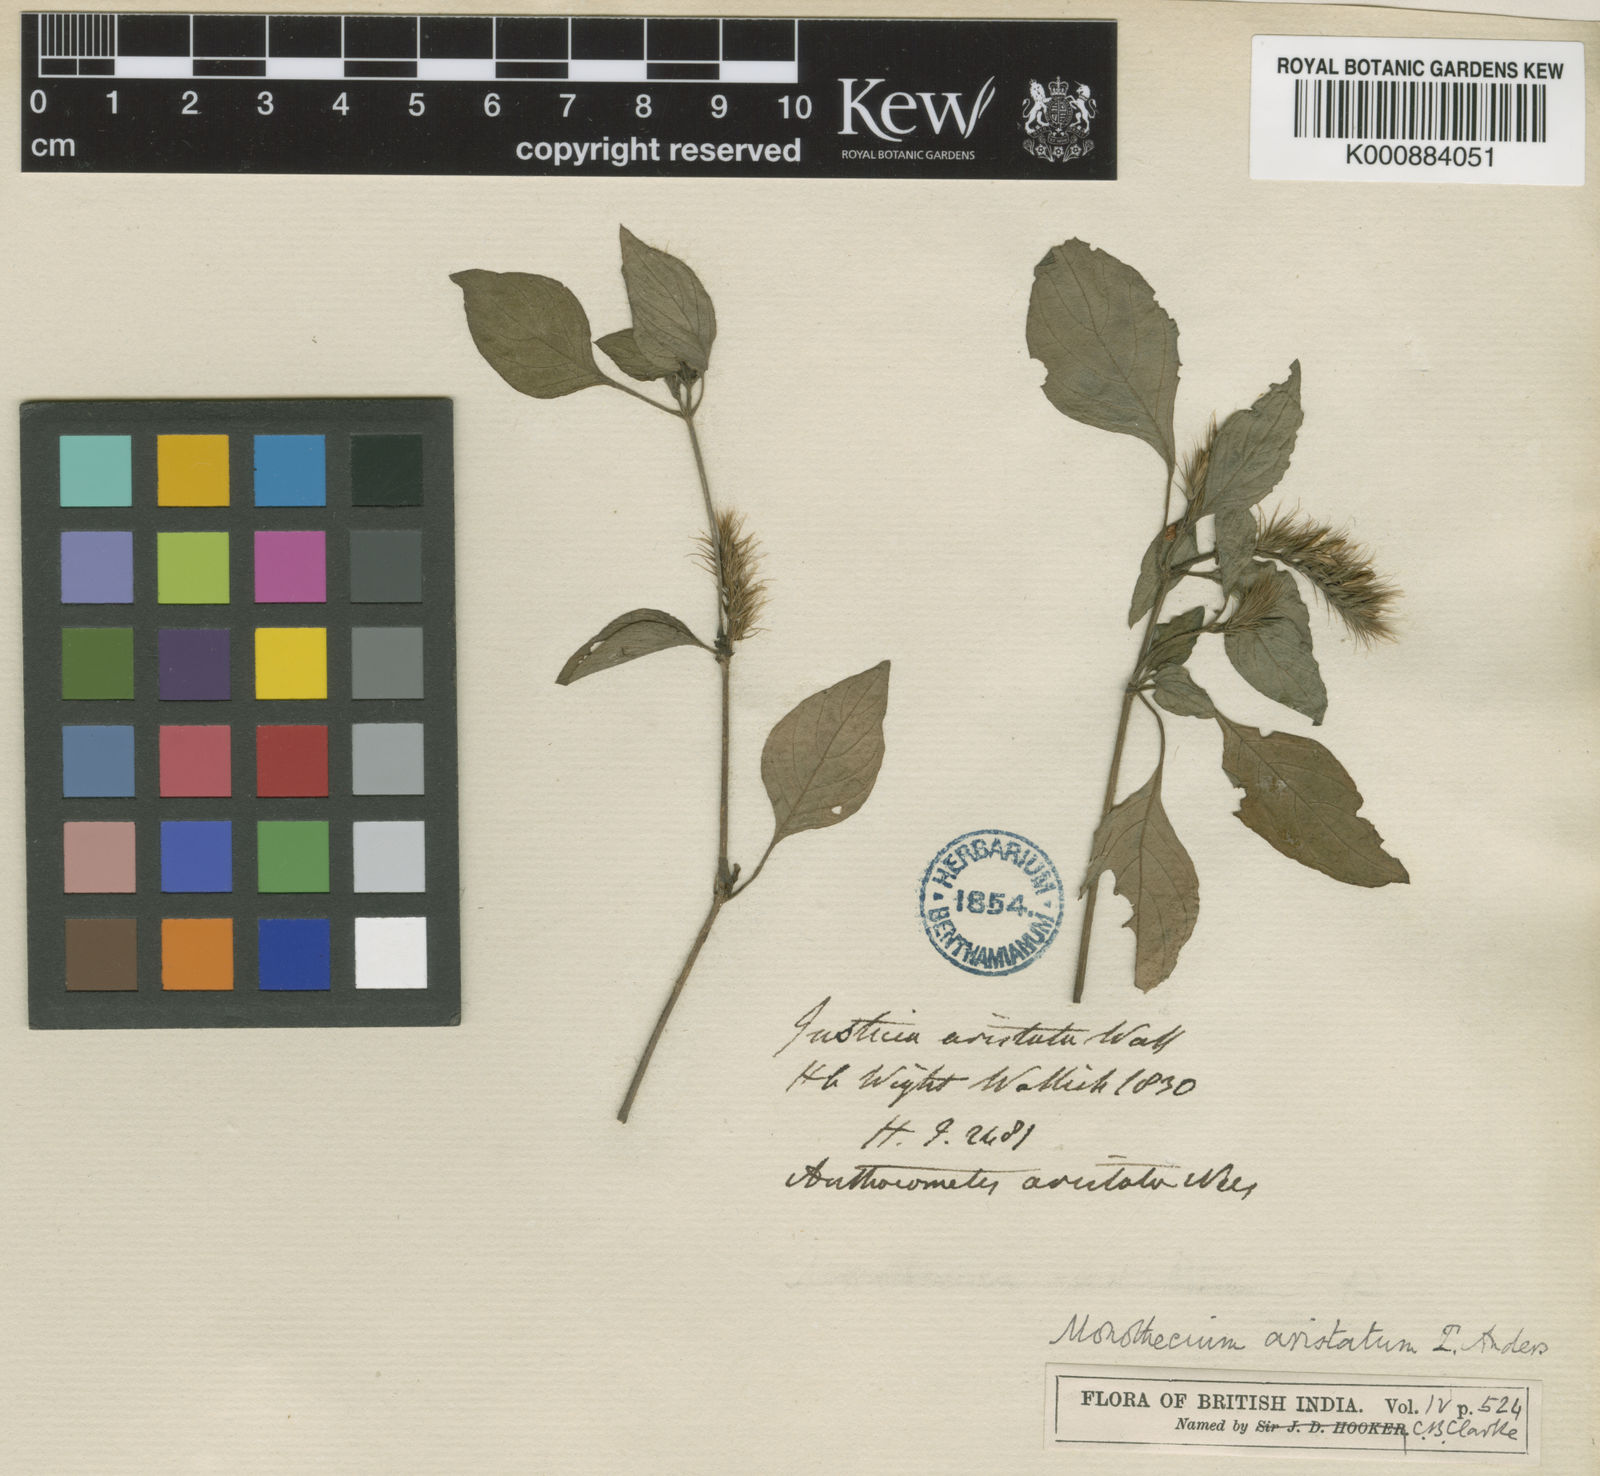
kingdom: Plantae
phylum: Tracheophyta
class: Magnoliopsida
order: Lamiales
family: Acanthaceae
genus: Monothecium
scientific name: Monothecium
